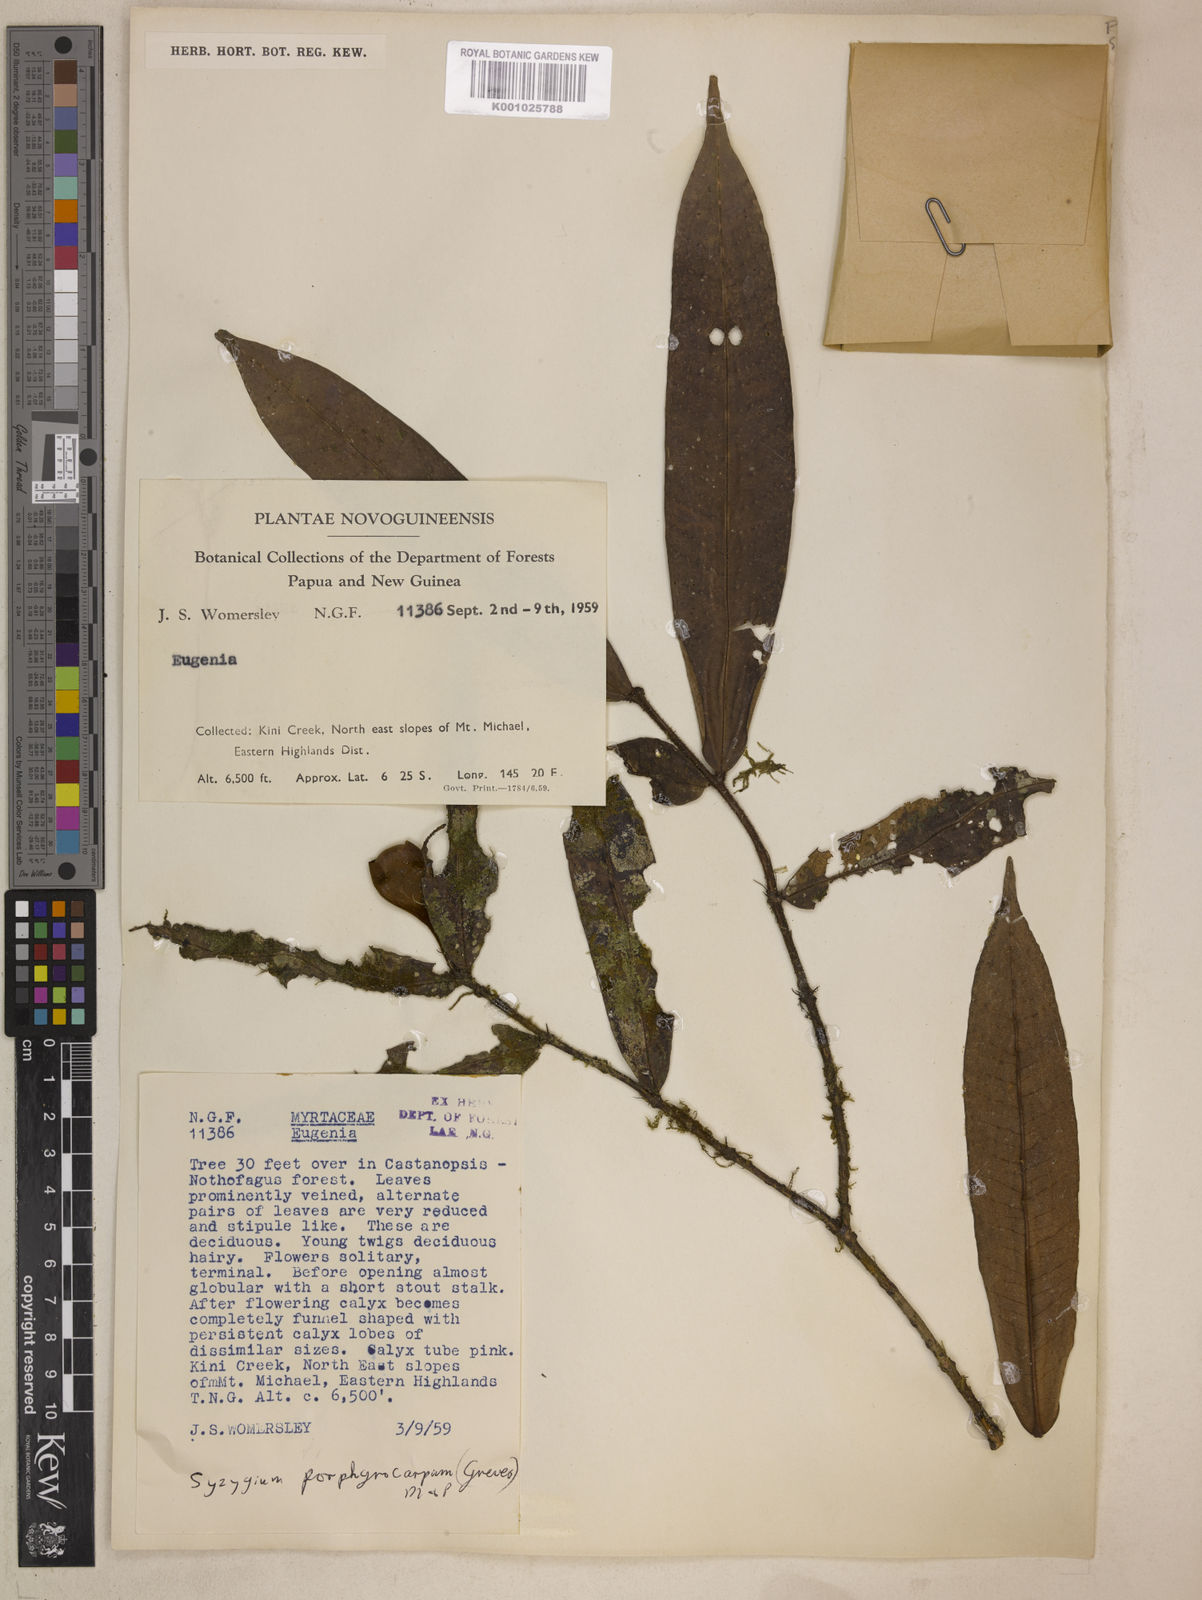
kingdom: Plantae
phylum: Tracheophyta
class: Magnoliopsida
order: Myrtales
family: Myrtaceae
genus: Syzygium
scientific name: Syzygium porphyrocarpum
